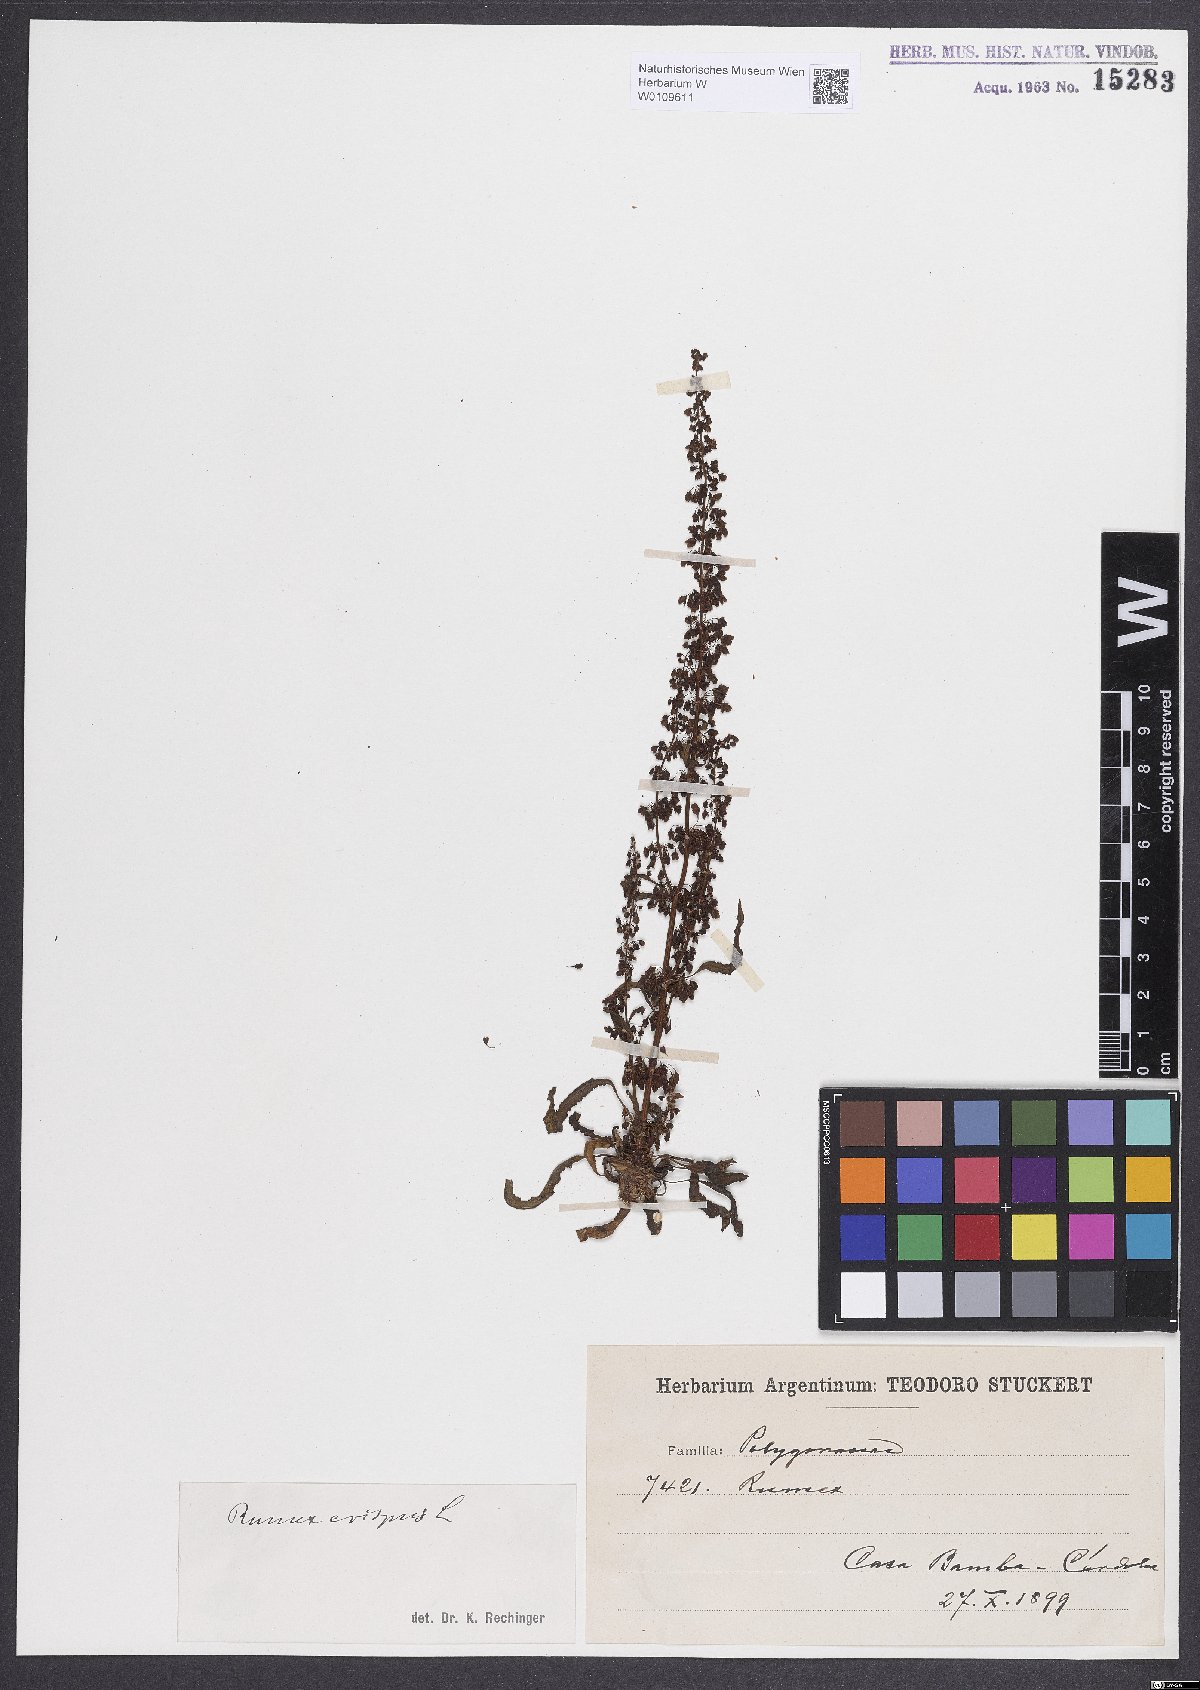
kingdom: Plantae
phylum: Tracheophyta
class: Magnoliopsida
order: Caryophyllales
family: Polygonaceae
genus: Rumex
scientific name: Rumex crispus
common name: Curled dock
